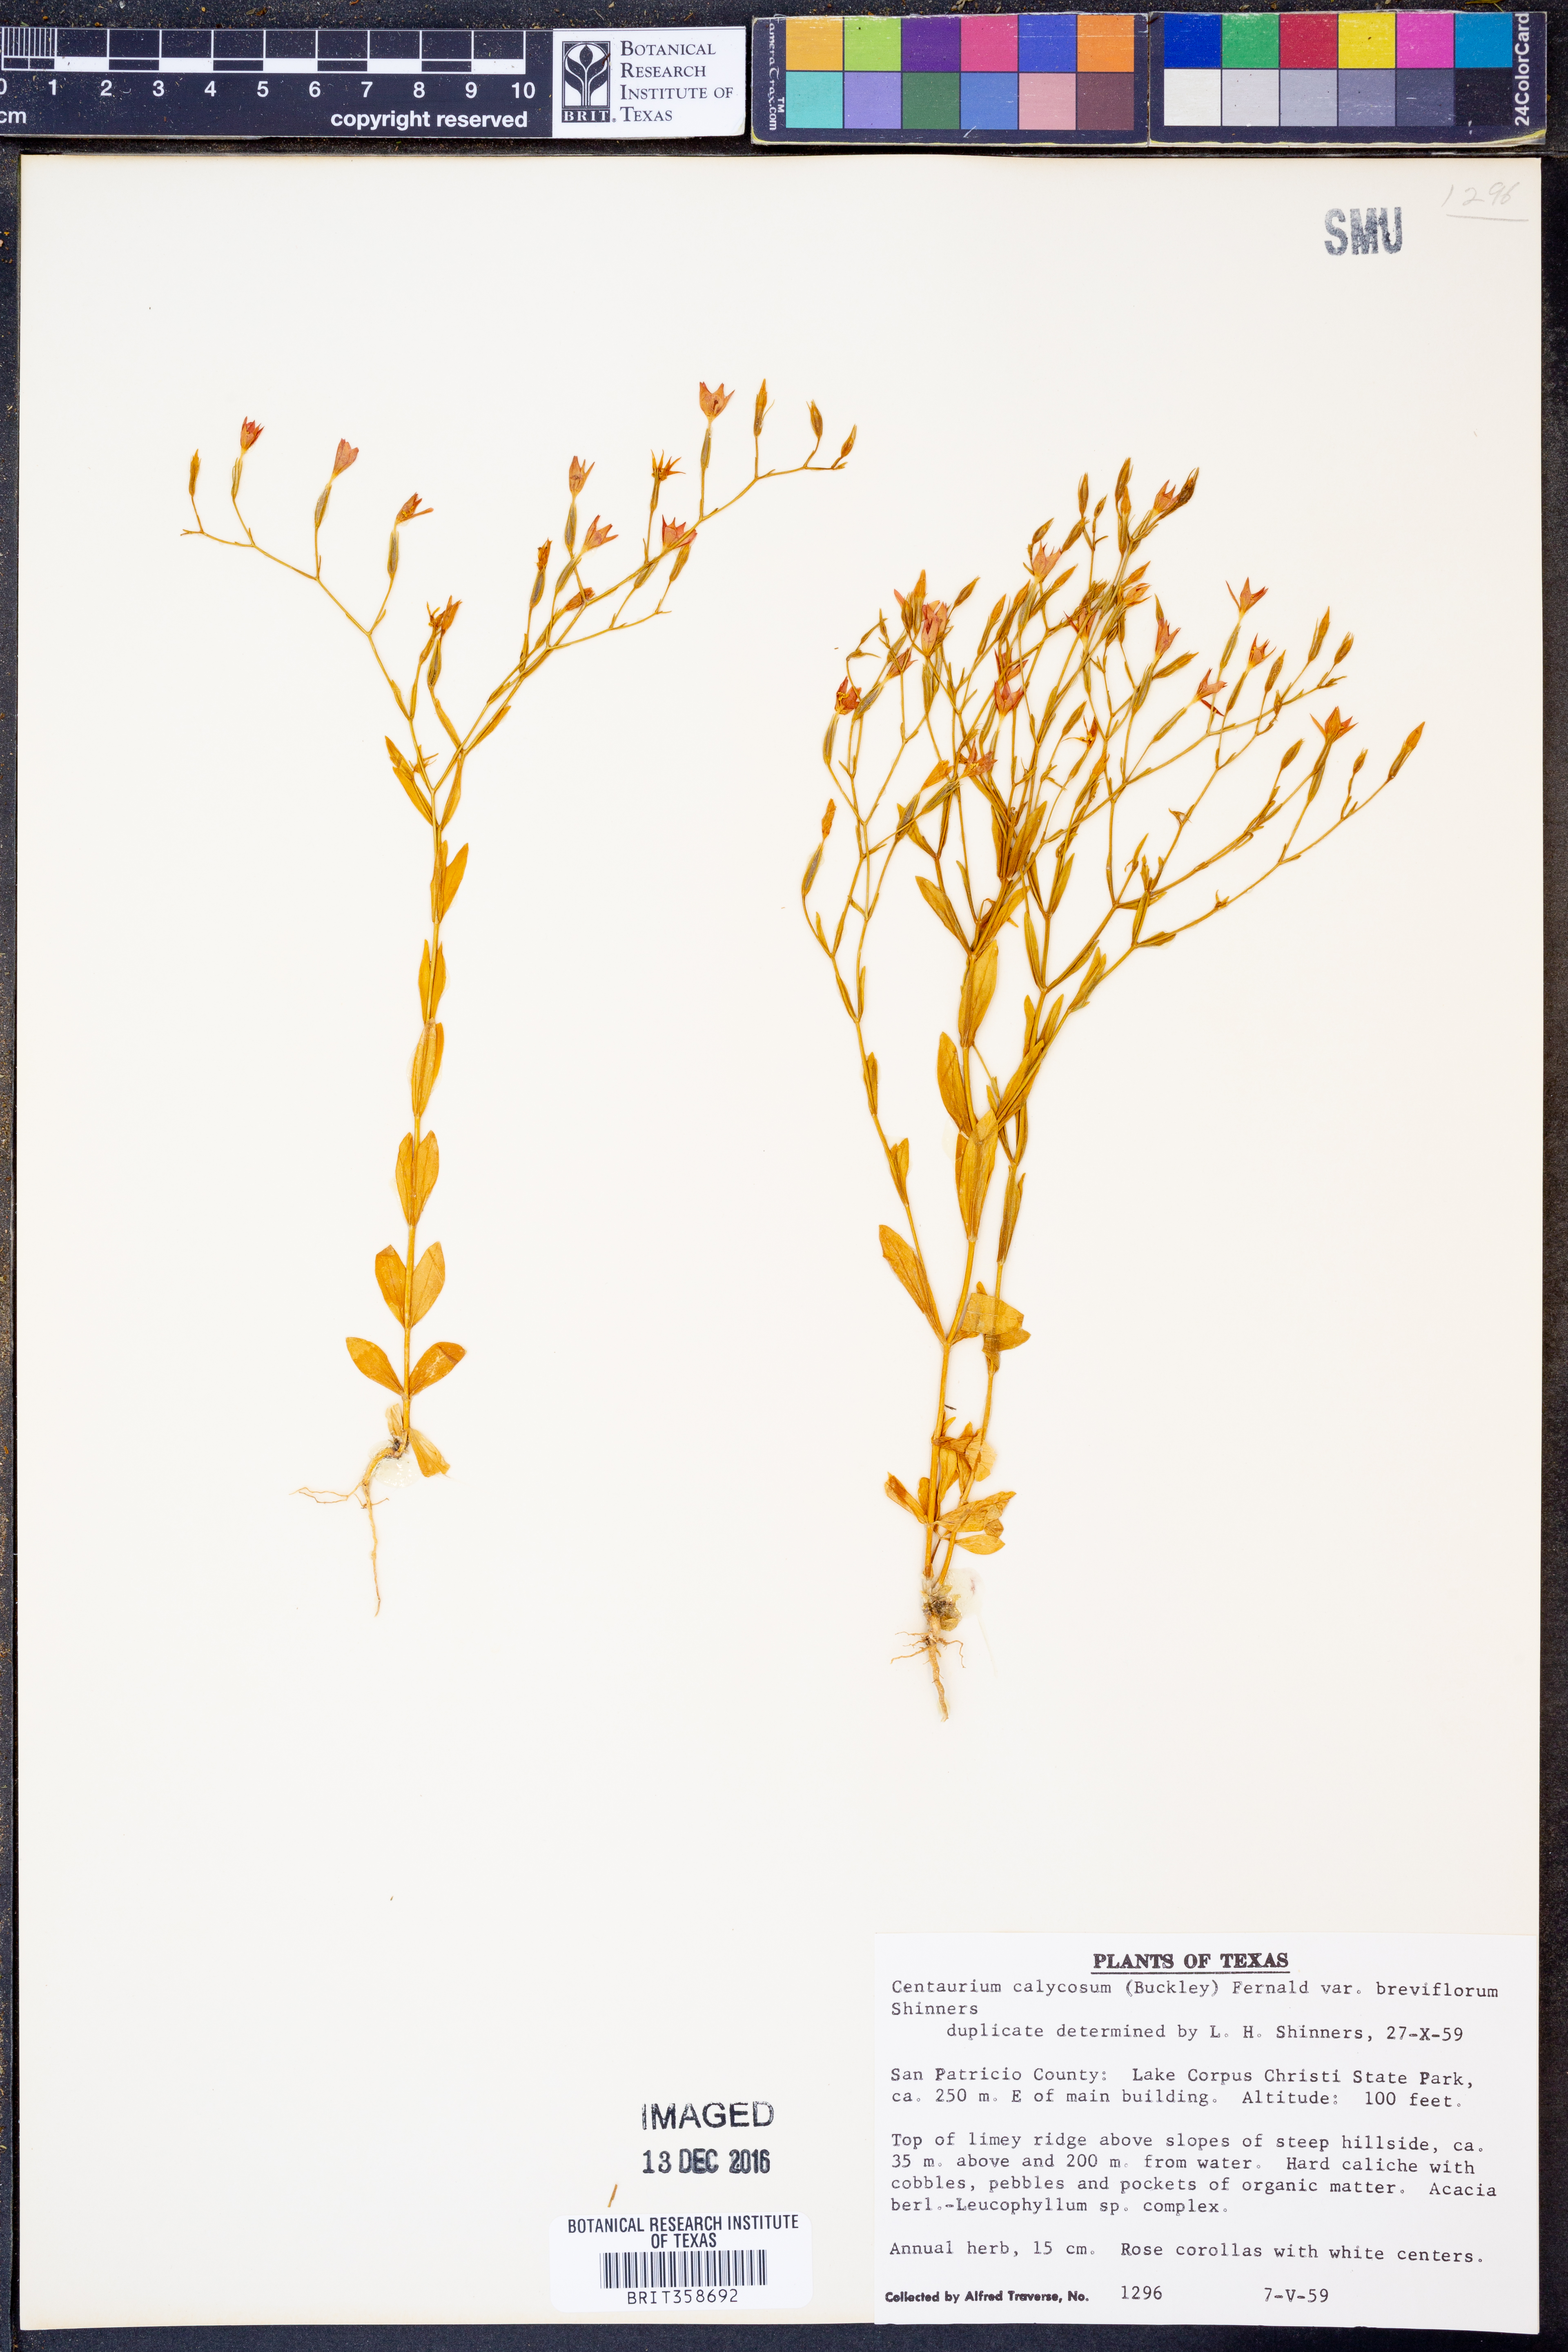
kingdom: Plantae
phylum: Tracheophyta
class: Magnoliopsida
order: Gentianales
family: Gentianaceae
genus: Zeltnera
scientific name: Zeltnera breviflora
